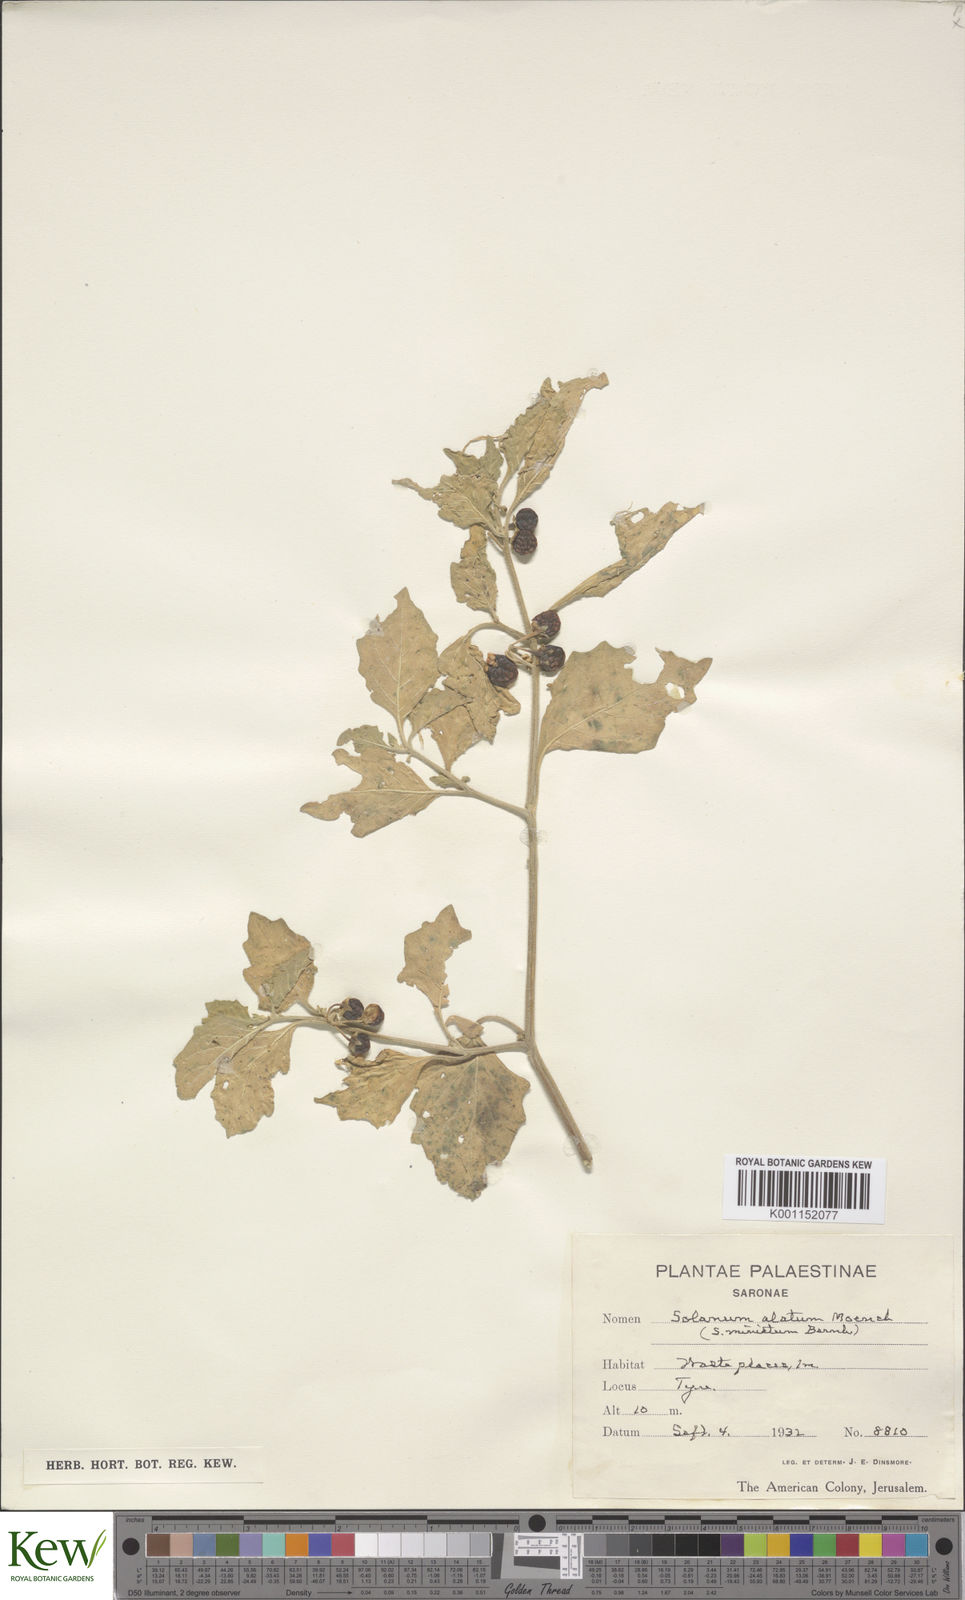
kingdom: Plantae
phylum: Tracheophyta
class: Magnoliopsida
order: Solanales
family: Solanaceae
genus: Solanum
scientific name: Solanum
